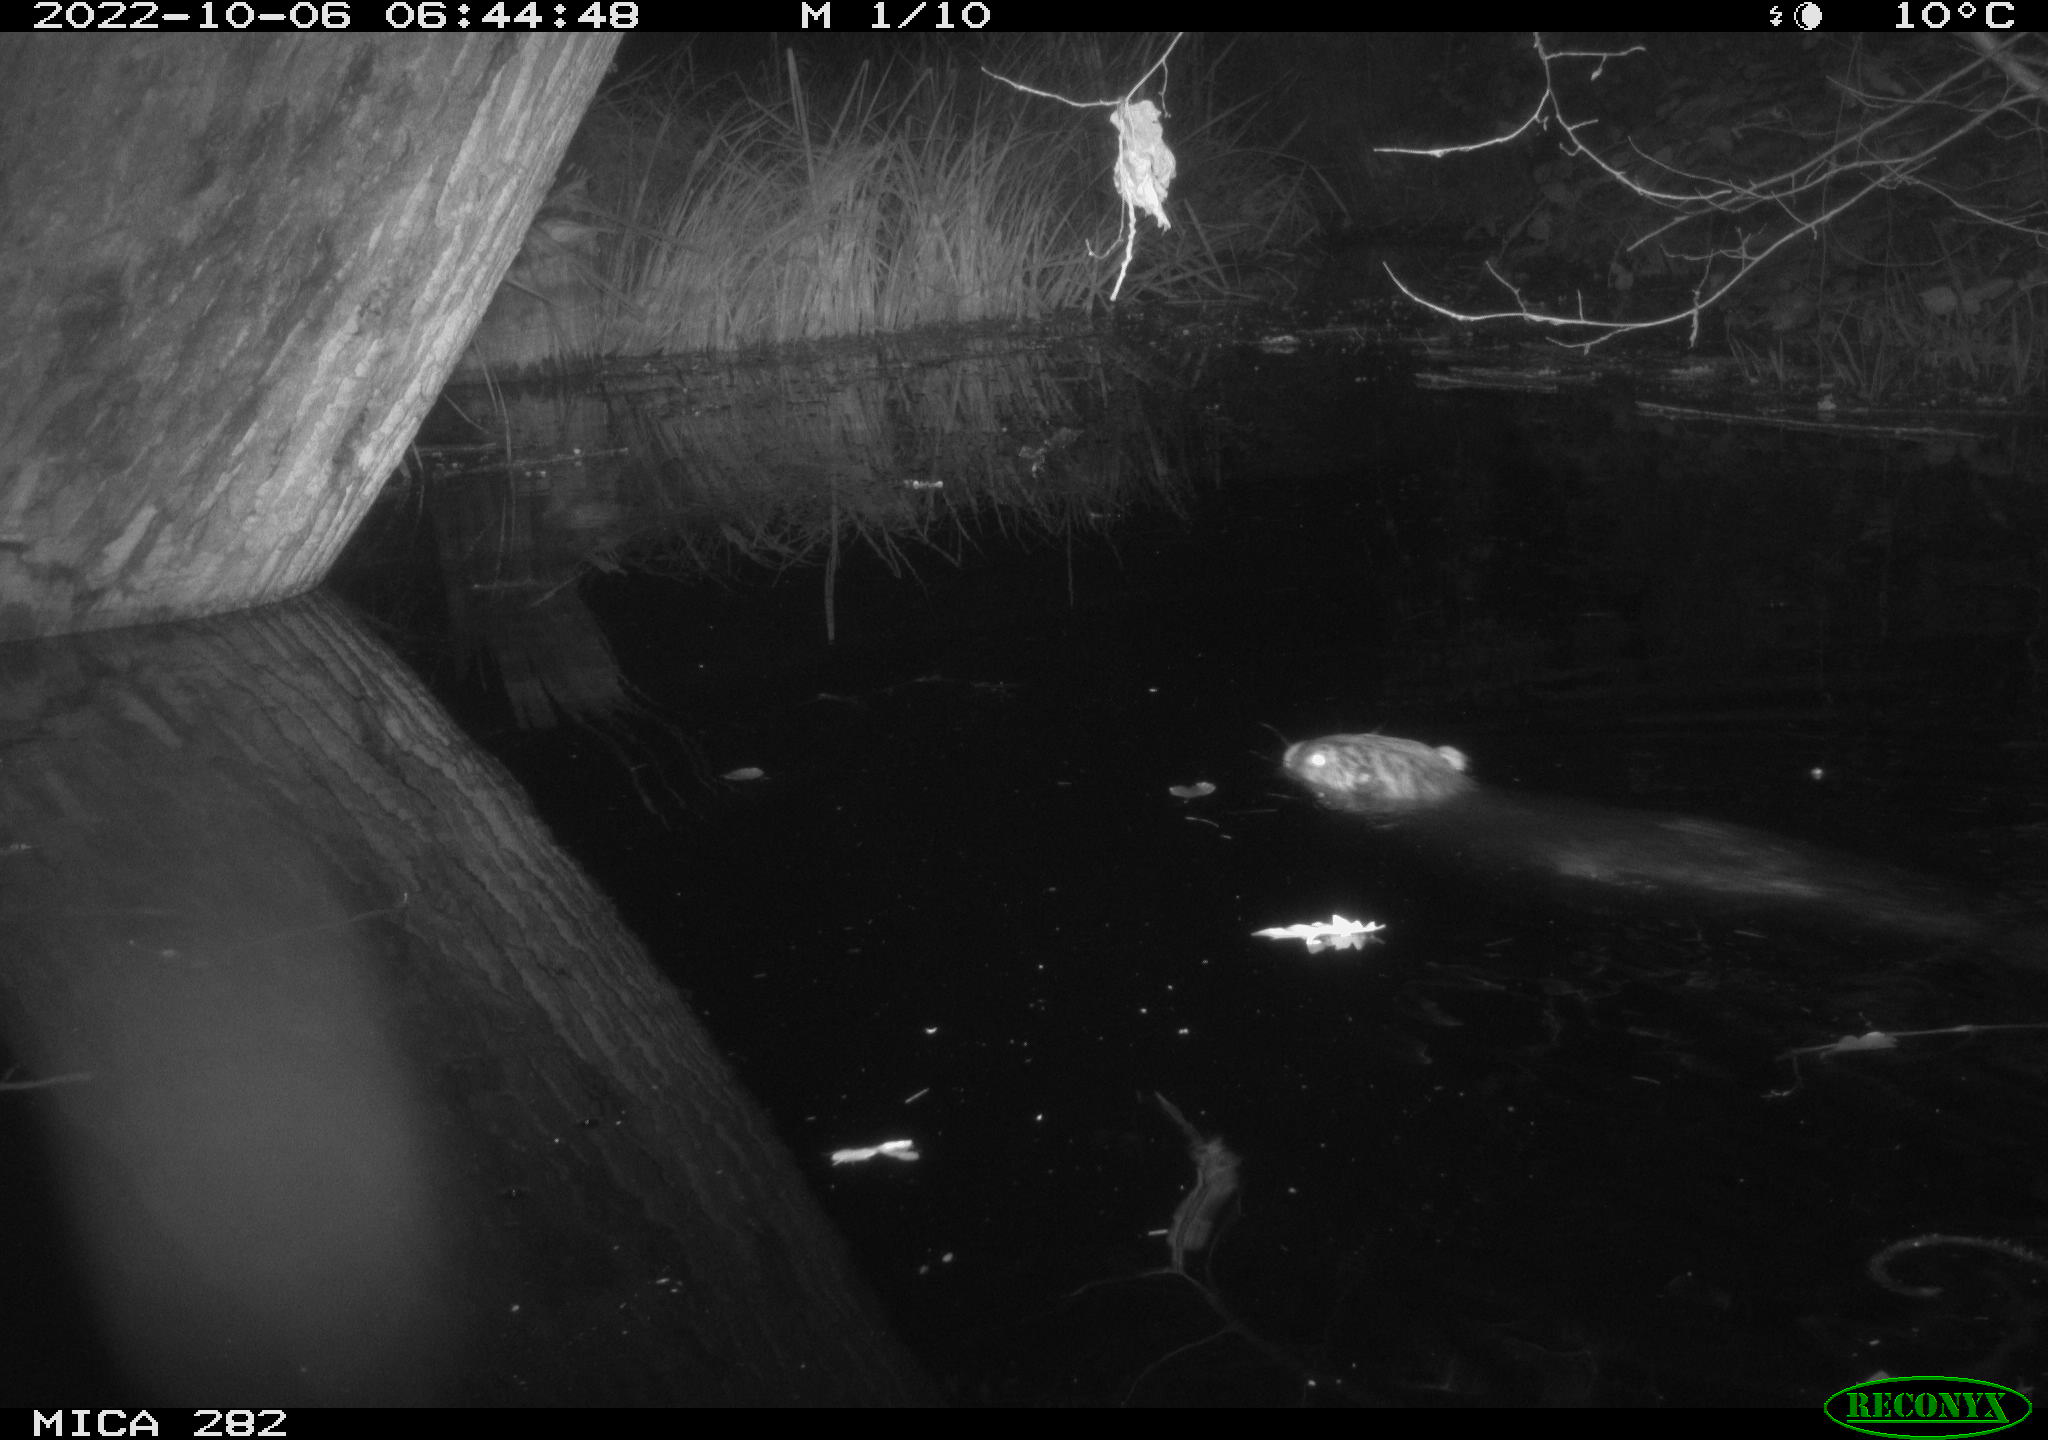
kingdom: Animalia
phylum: Chordata
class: Mammalia
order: Rodentia
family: Castoridae
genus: Castor
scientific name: Castor fiber
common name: Eurasian beaver
